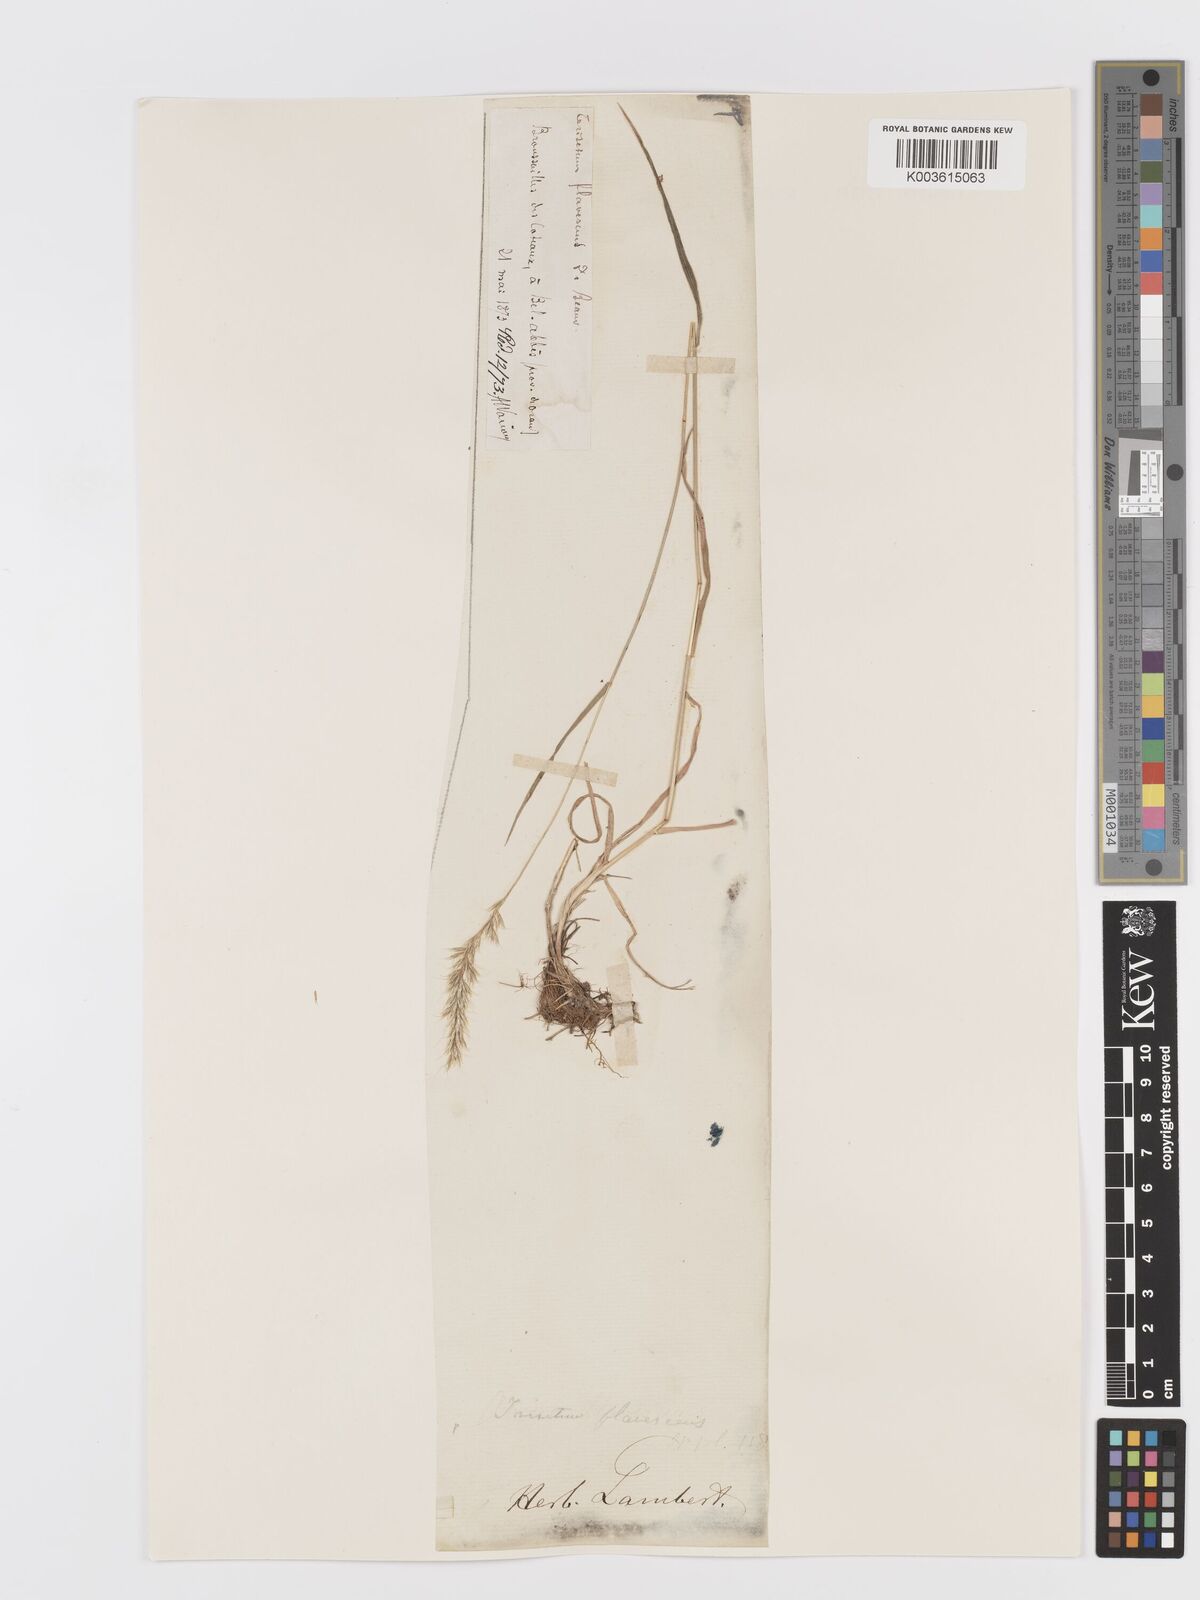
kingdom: Plantae
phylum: Tracheophyta
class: Liliopsida
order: Poales
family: Poaceae
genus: Trisetum
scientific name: Trisetum flavescens
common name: Yellow oat-grass
